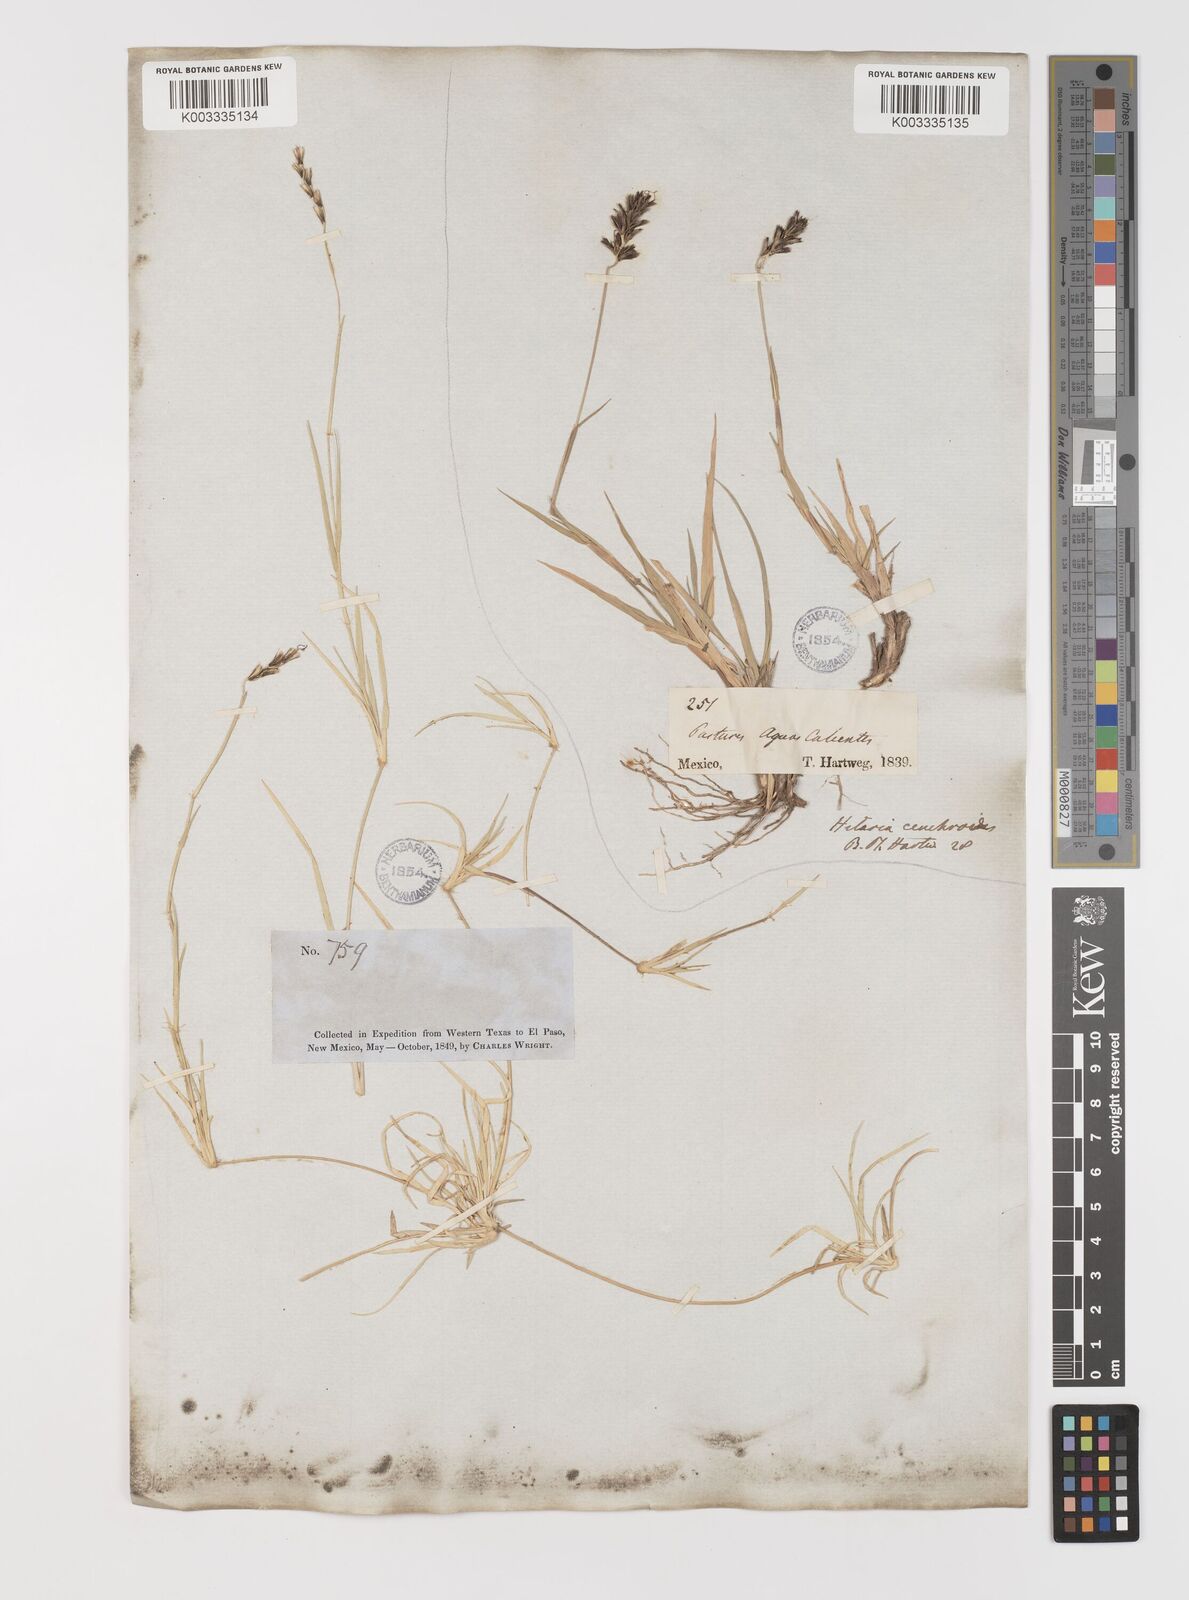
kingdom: Plantae
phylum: Tracheophyta
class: Liliopsida
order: Poales
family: Poaceae
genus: Hilaria
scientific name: Hilaria cenchroides
